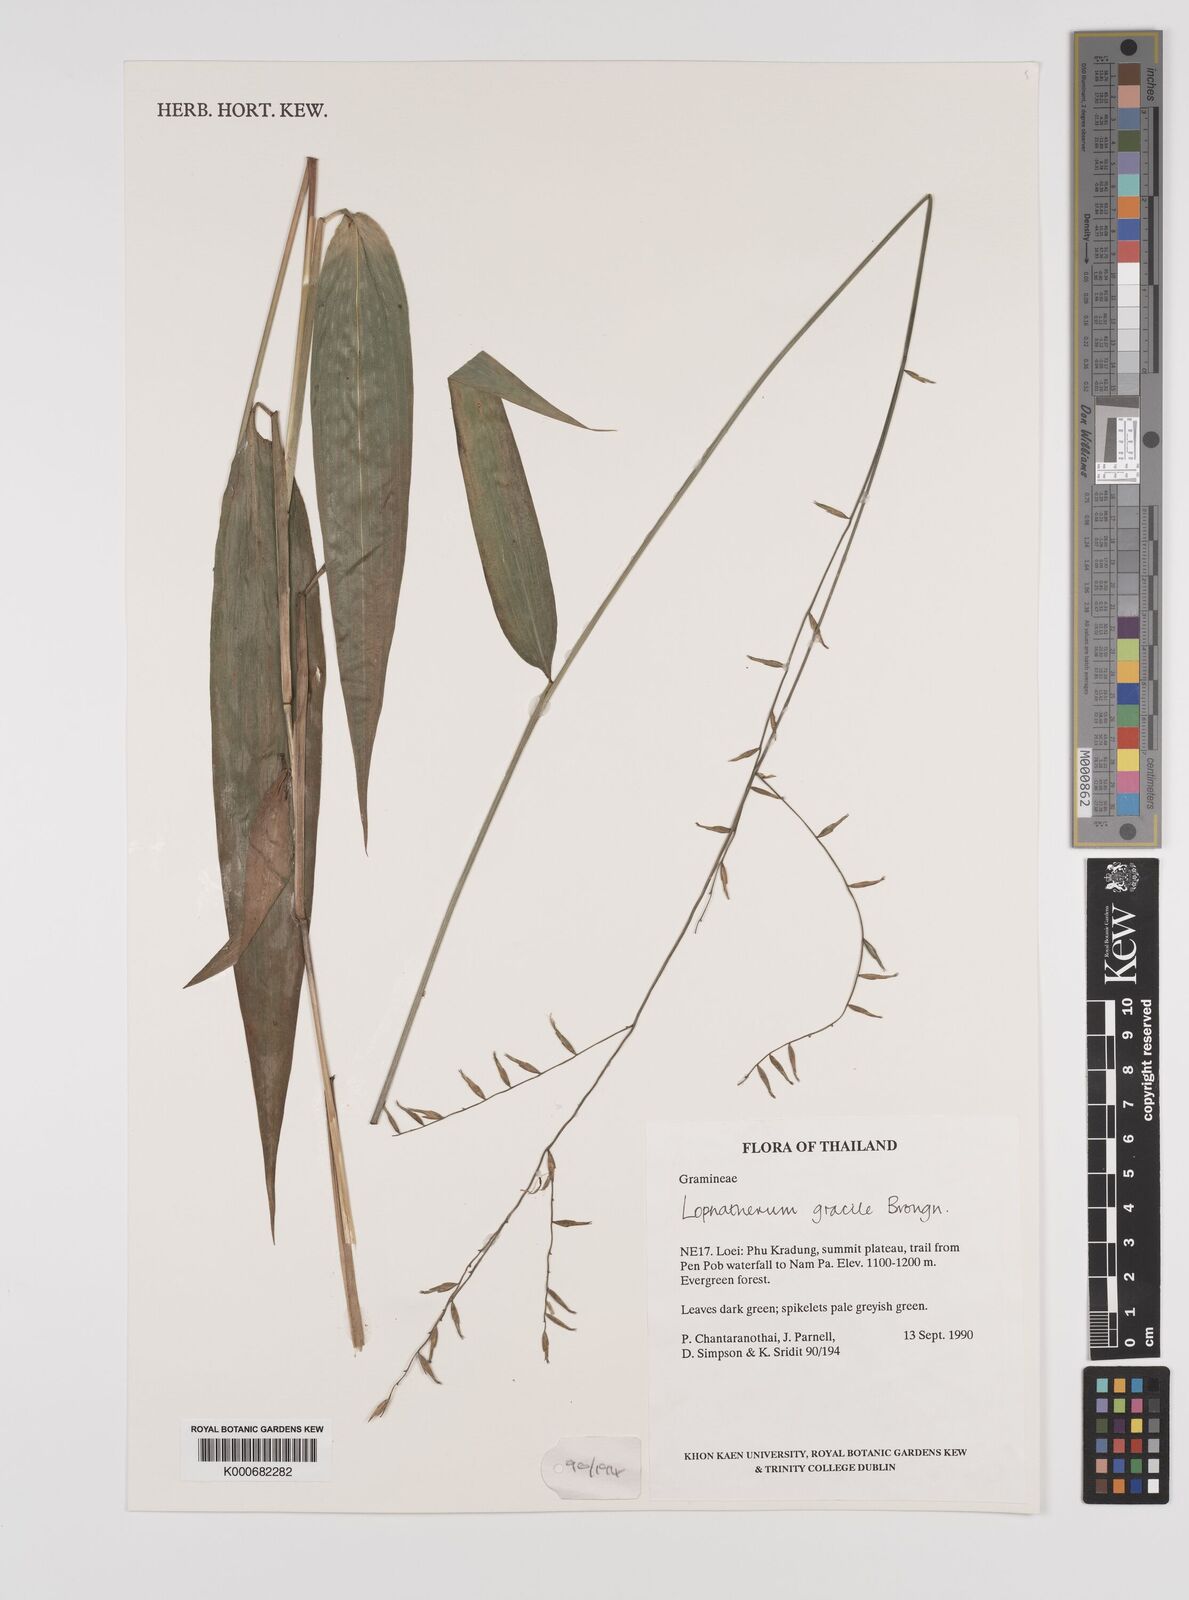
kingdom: Plantae
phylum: Tracheophyta
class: Liliopsida
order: Poales
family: Poaceae
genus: Lophatherum
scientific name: Lophatherum gracile
